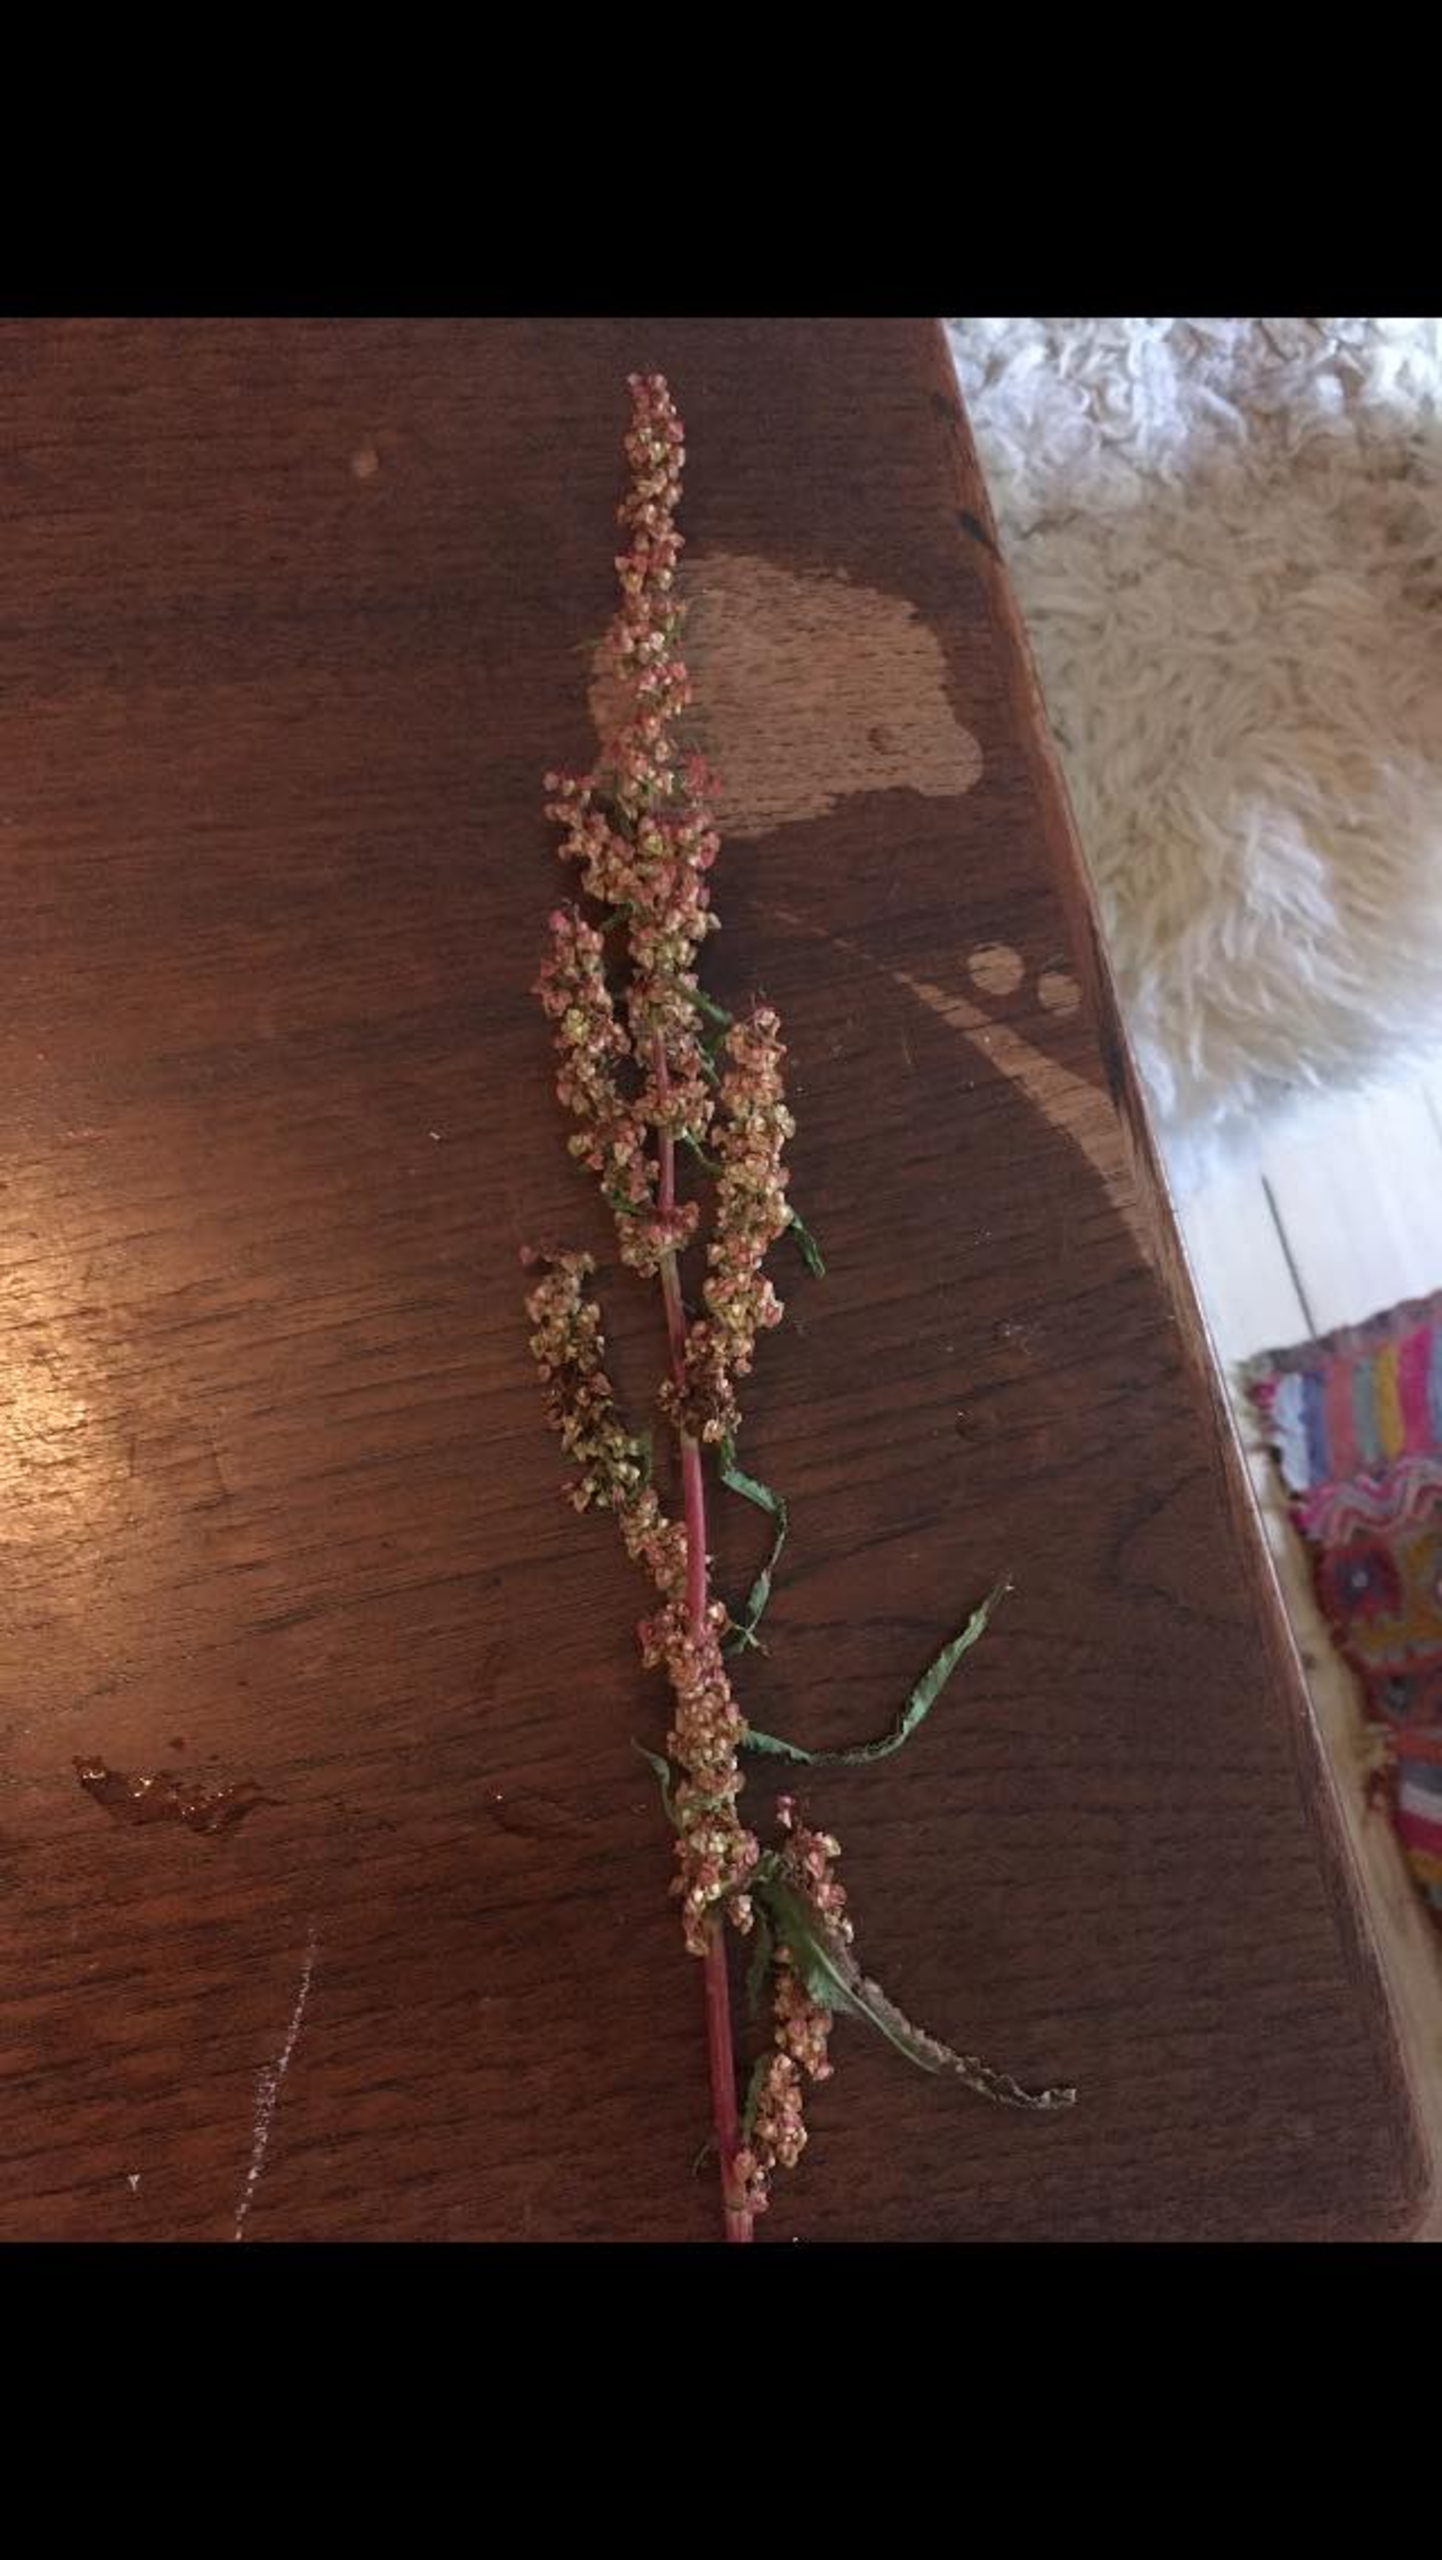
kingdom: Plantae
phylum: Tracheophyta
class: Magnoliopsida
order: Caryophyllales
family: Polygonaceae
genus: Rumex
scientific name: Rumex crispus
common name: Kruset skræppe
